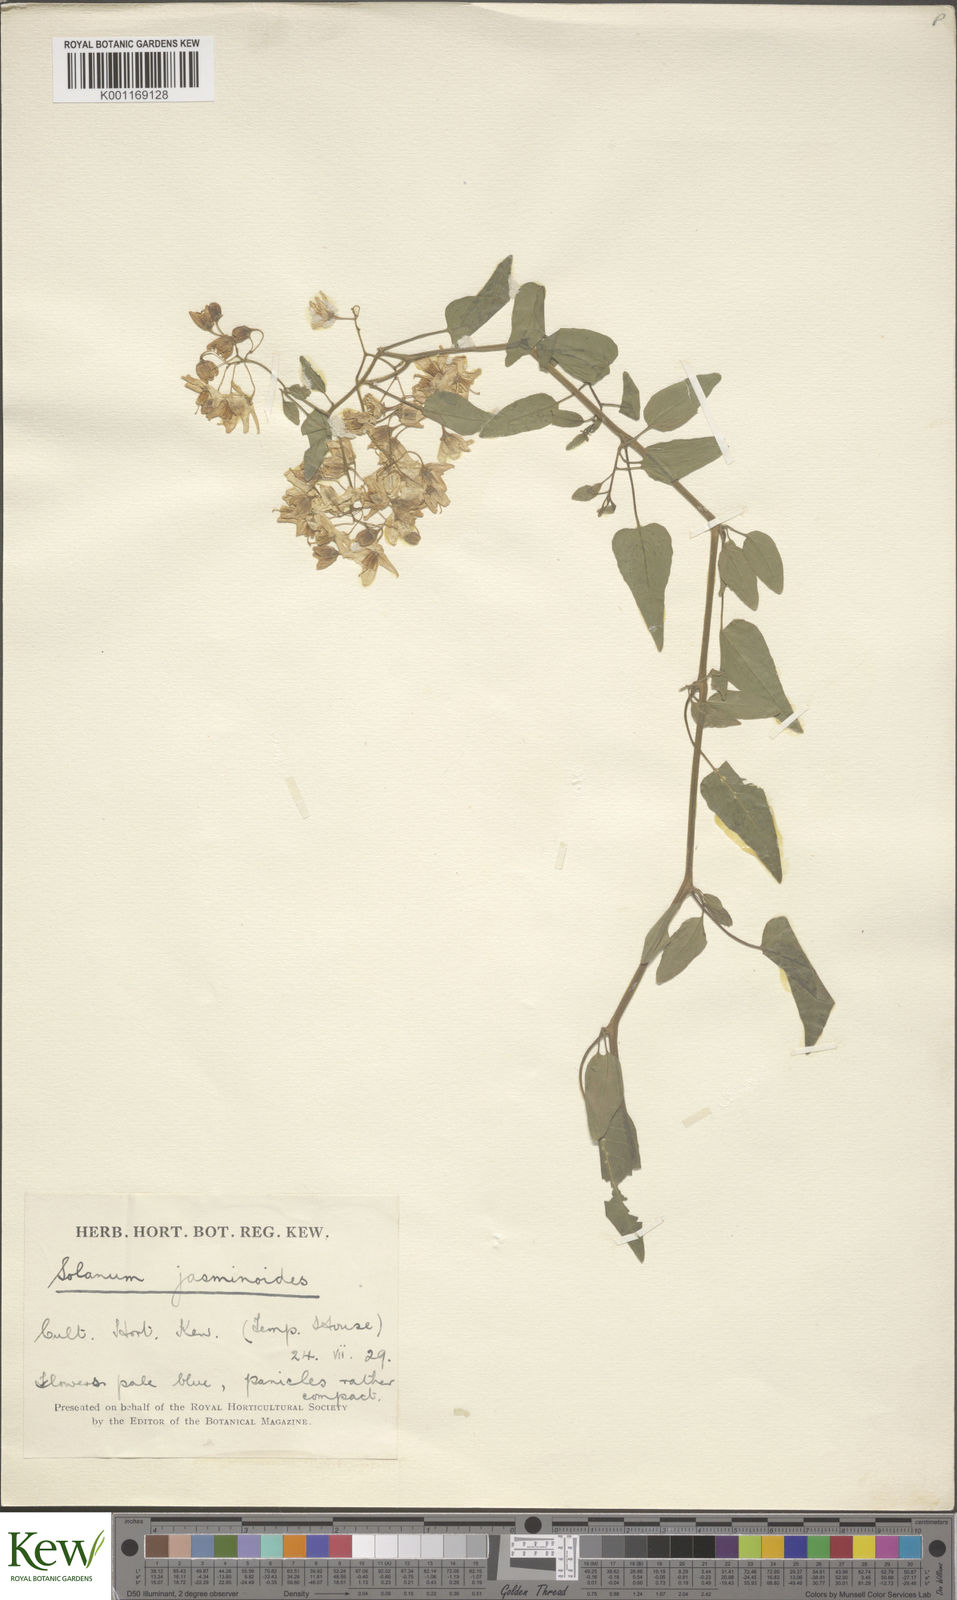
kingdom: Plantae
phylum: Tracheophyta
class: Magnoliopsida
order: Solanales
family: Solanaceae
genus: Solanum
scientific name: Solanum laxum
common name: Nightshade
